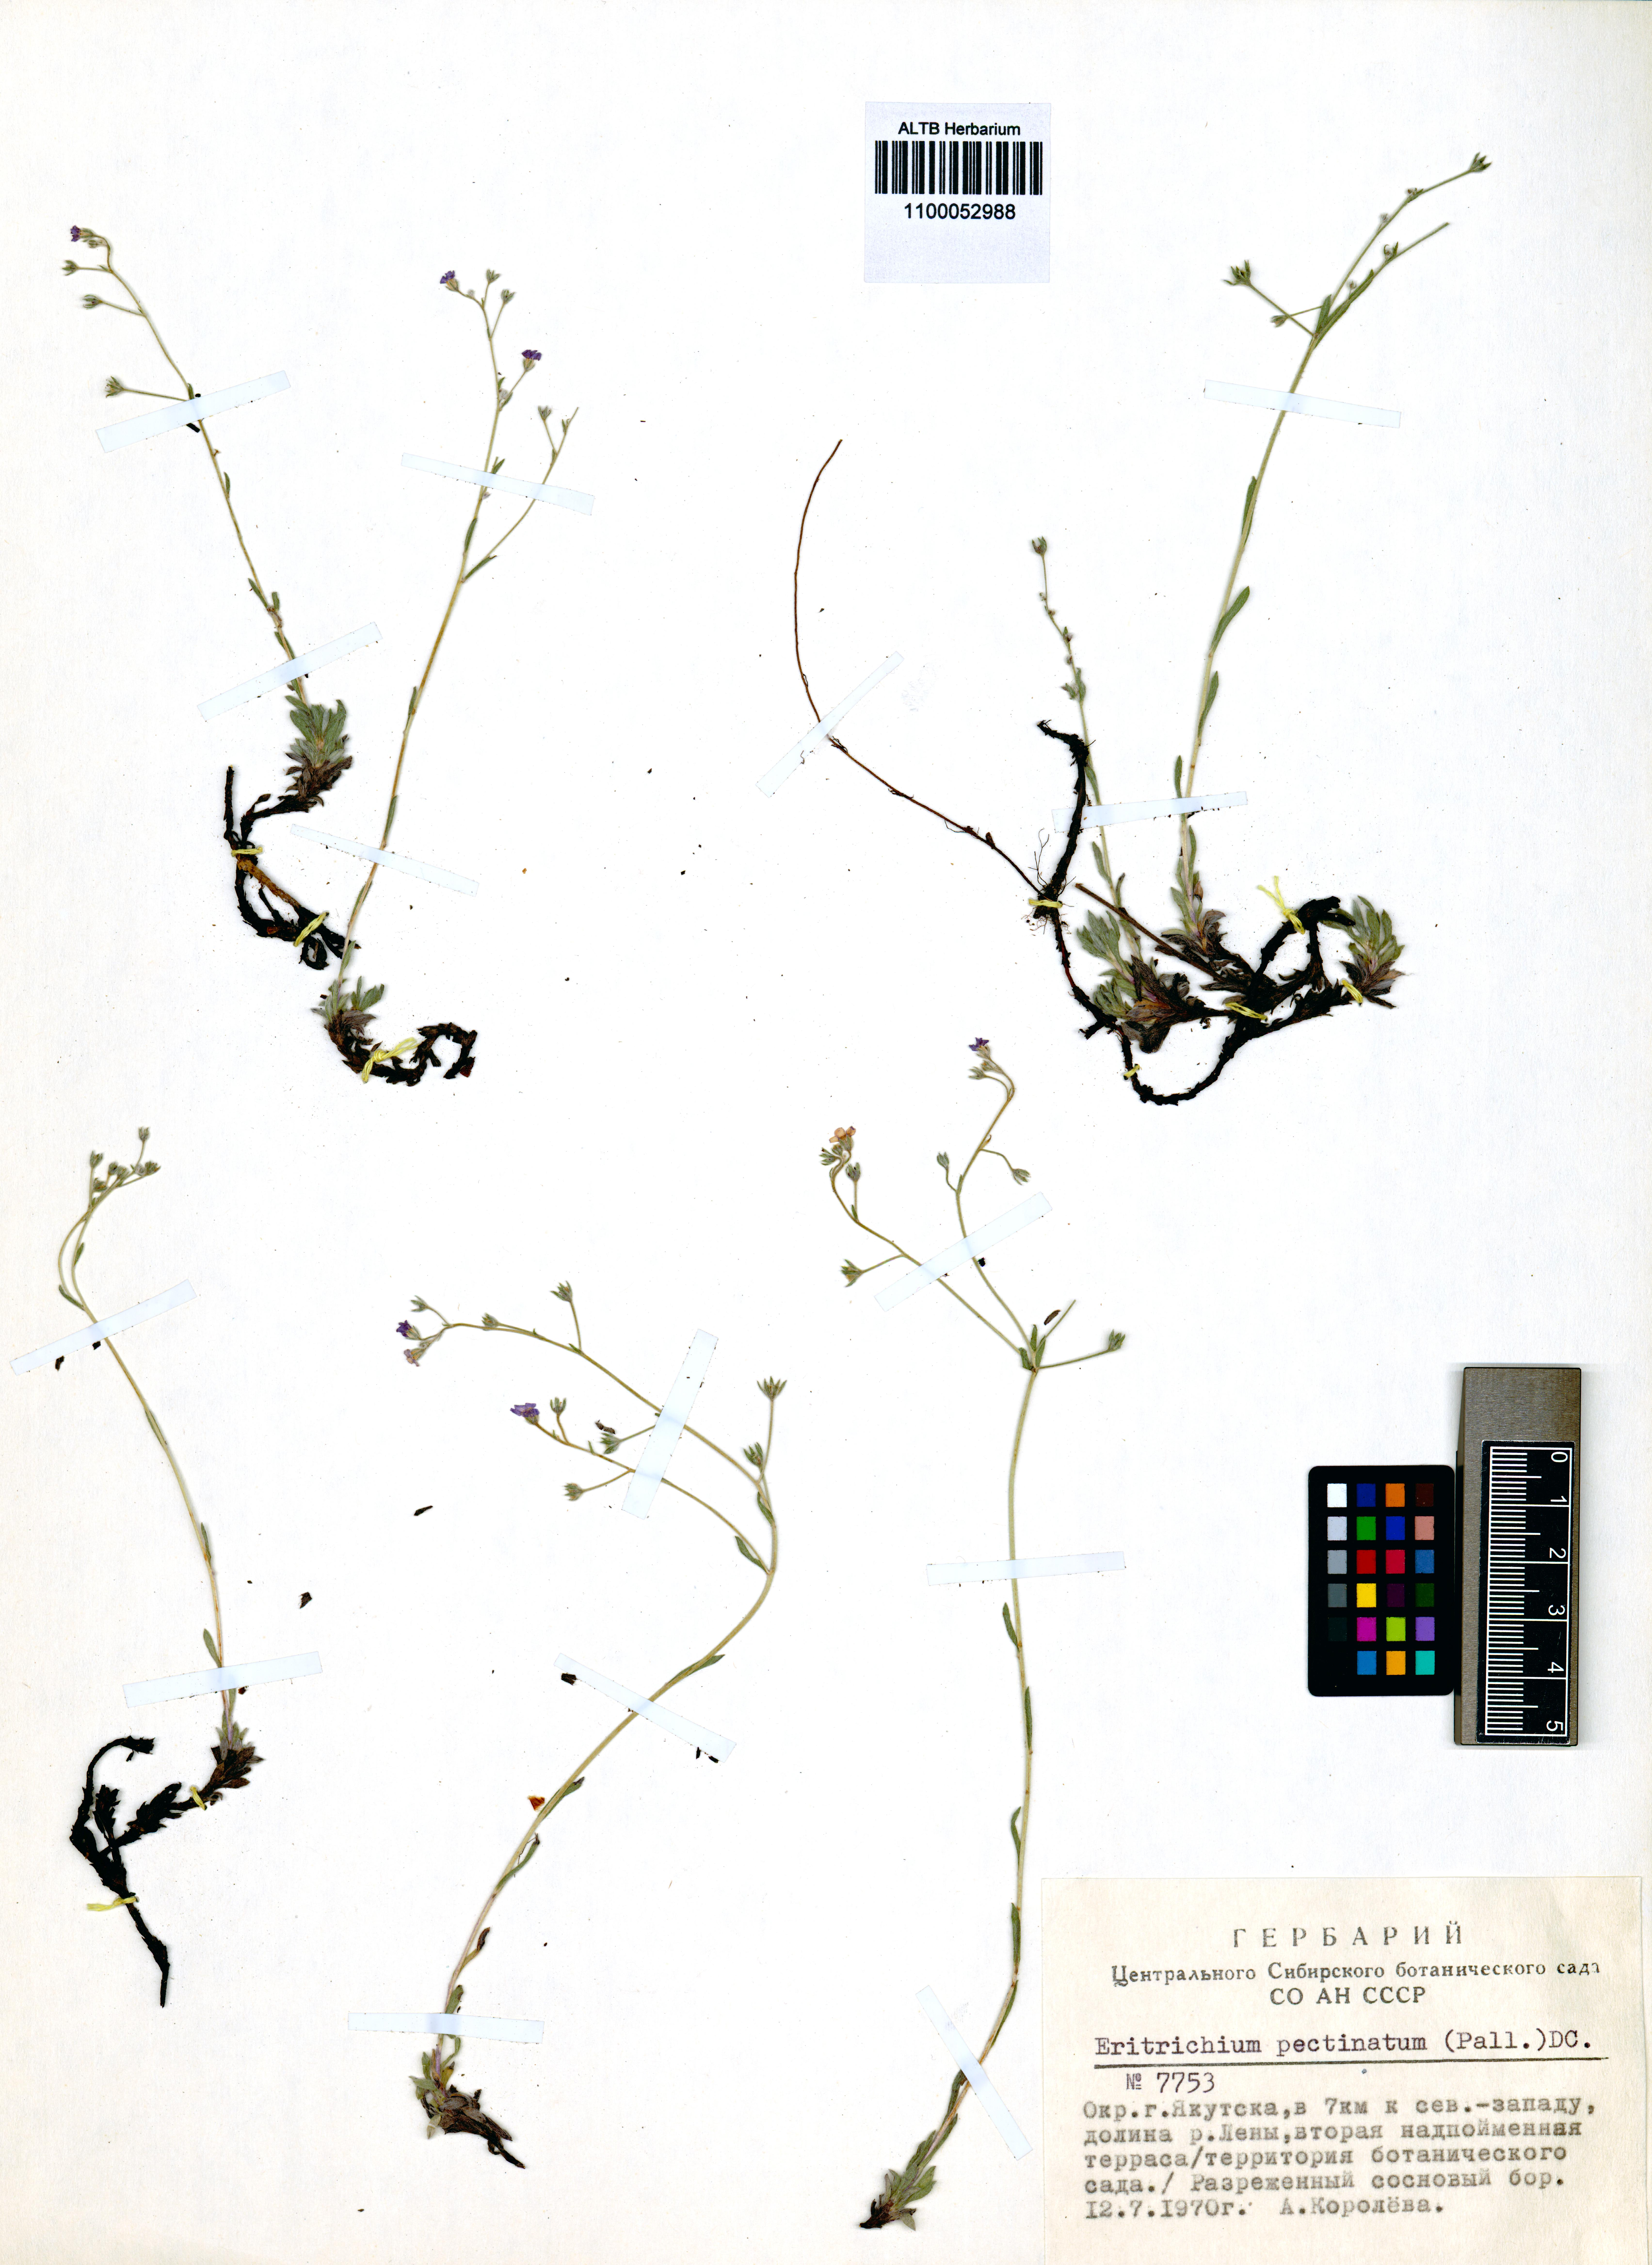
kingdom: Plantae
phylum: Tracheophyta
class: Magnoliopsida
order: Boraginales
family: Boraginaceae
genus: Eritrichium
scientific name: Eritrichium pectinatum
